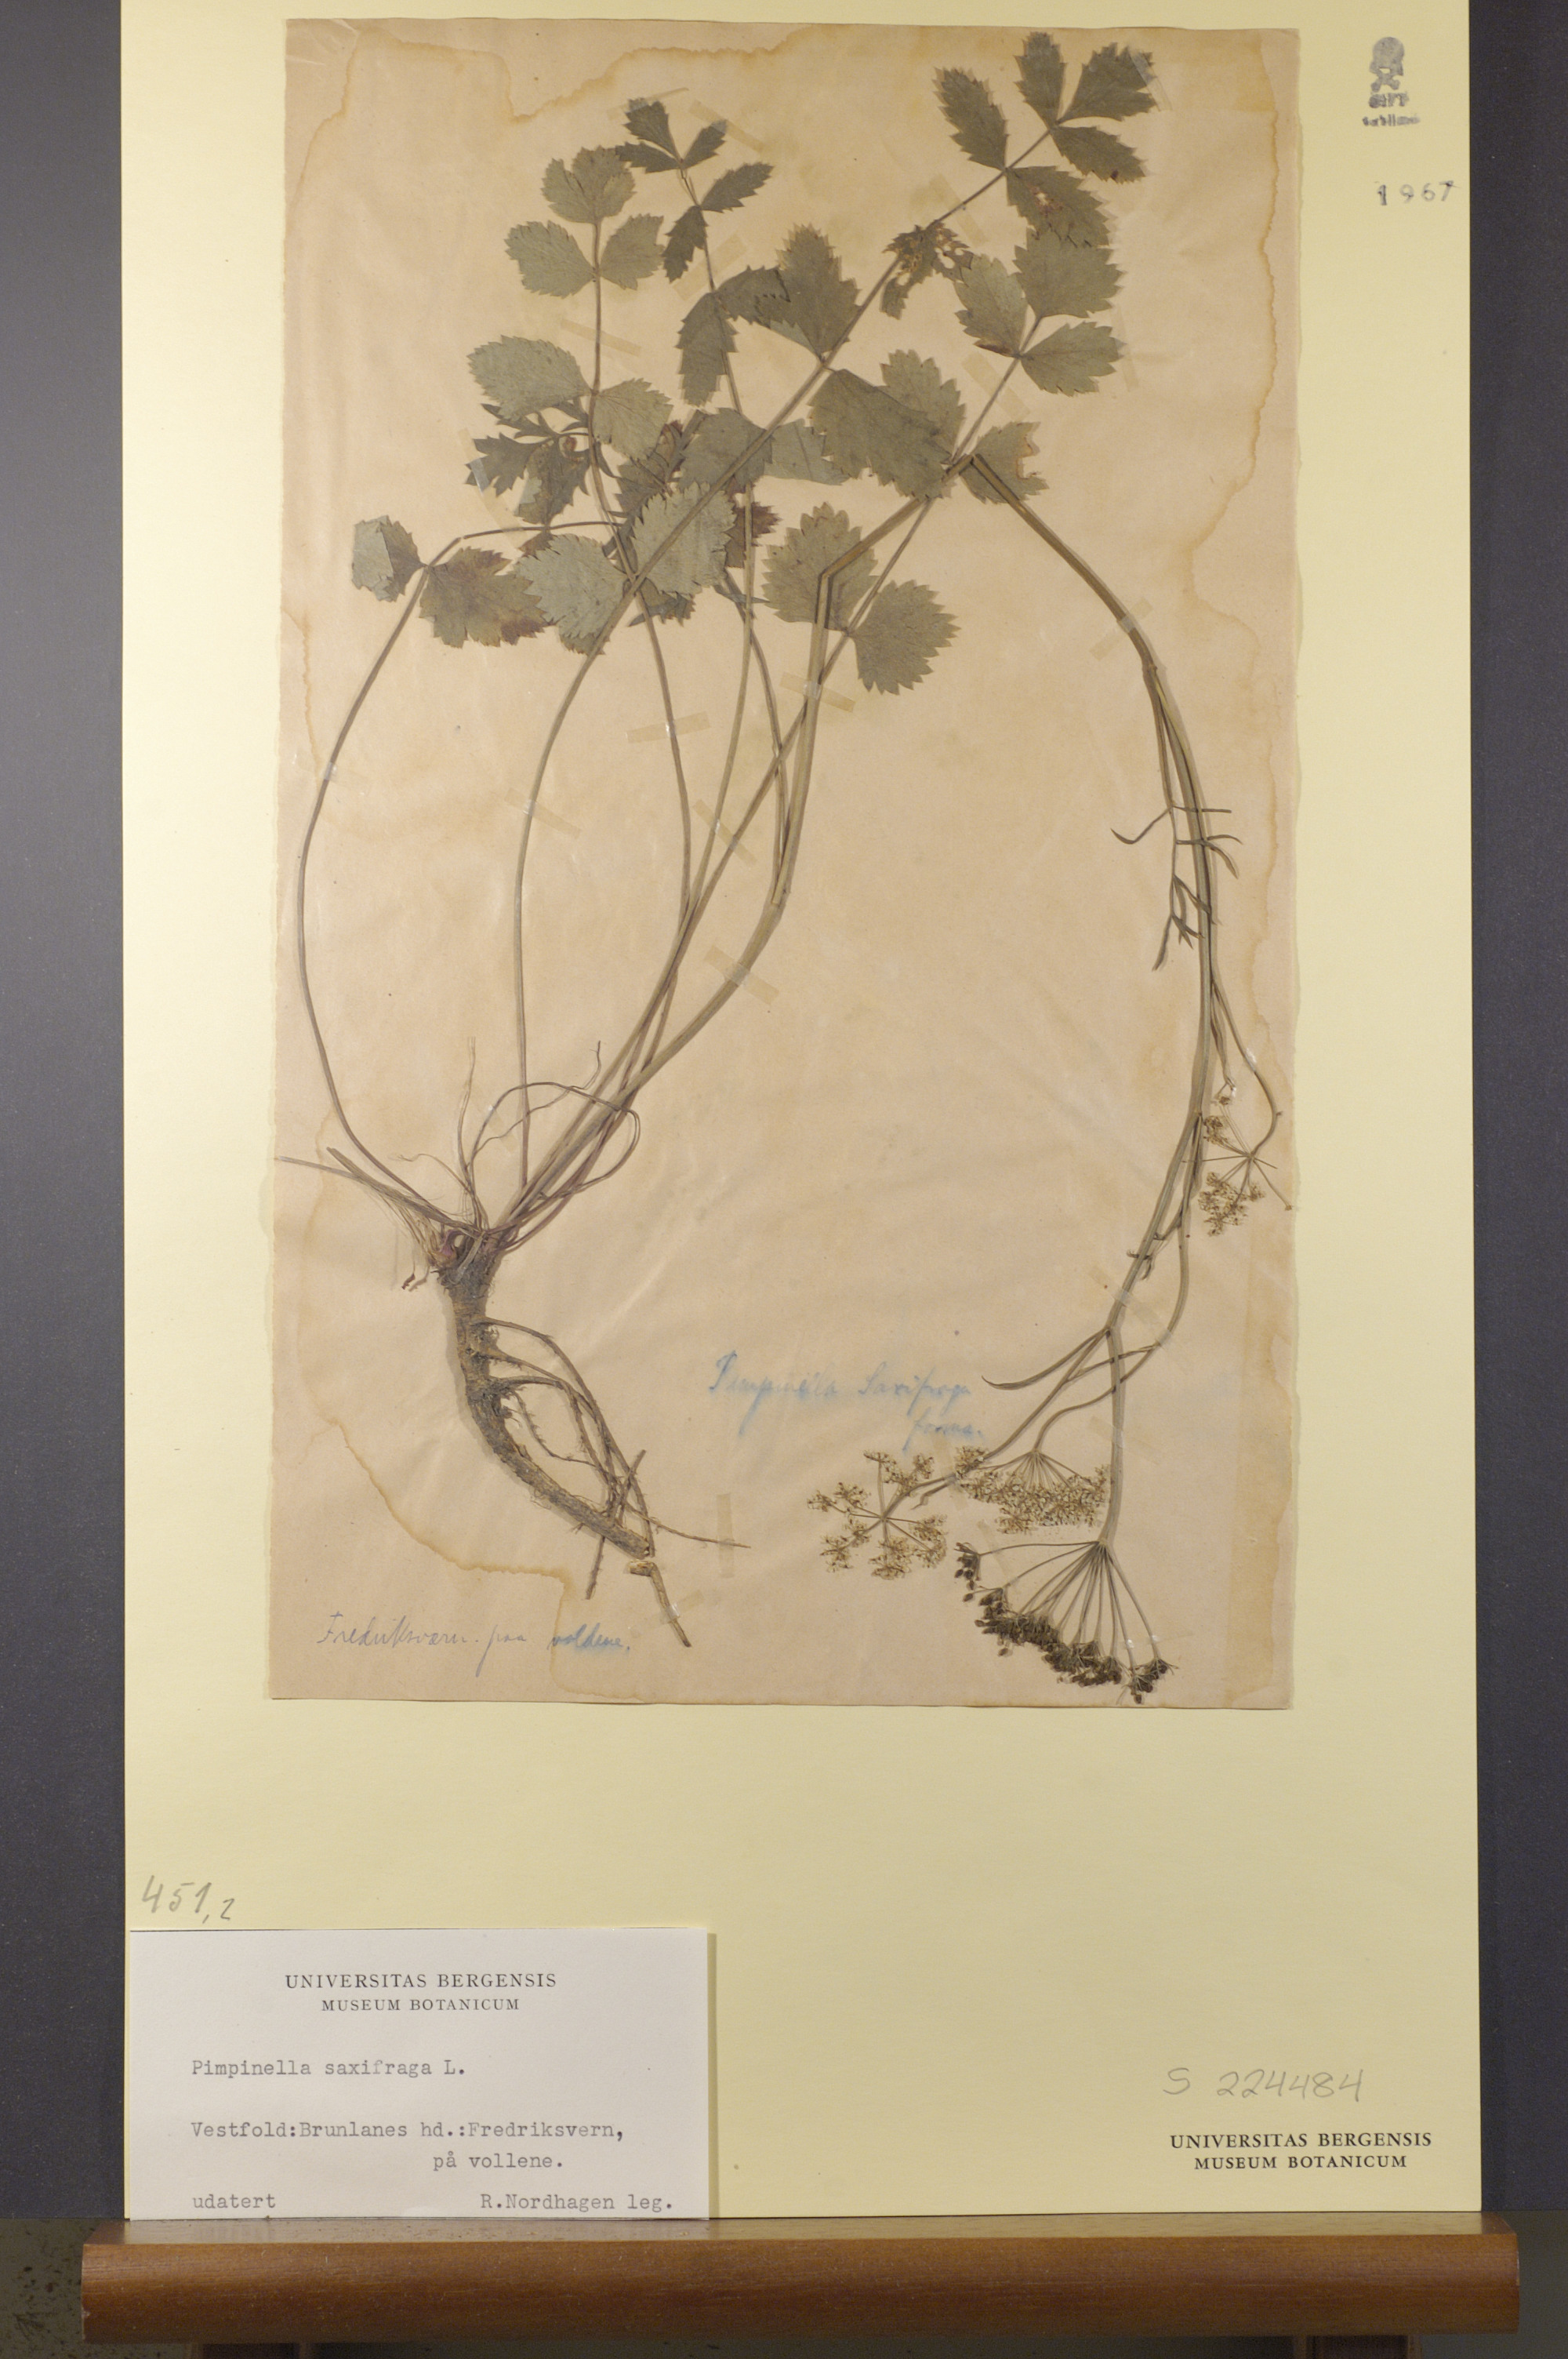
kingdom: Plantae
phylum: Tracheophyta
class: Magnoliopsida
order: Apiales
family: Apiaceae
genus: Pimpinella
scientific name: Pimpinella saxifraga
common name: Burnet-saxifrage
